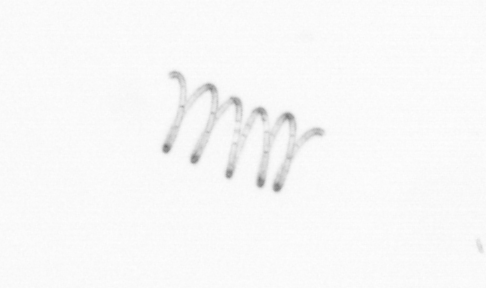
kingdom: Chromista
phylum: Ochrophyta
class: Bacillariophyceae
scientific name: Bacillariophyceae
